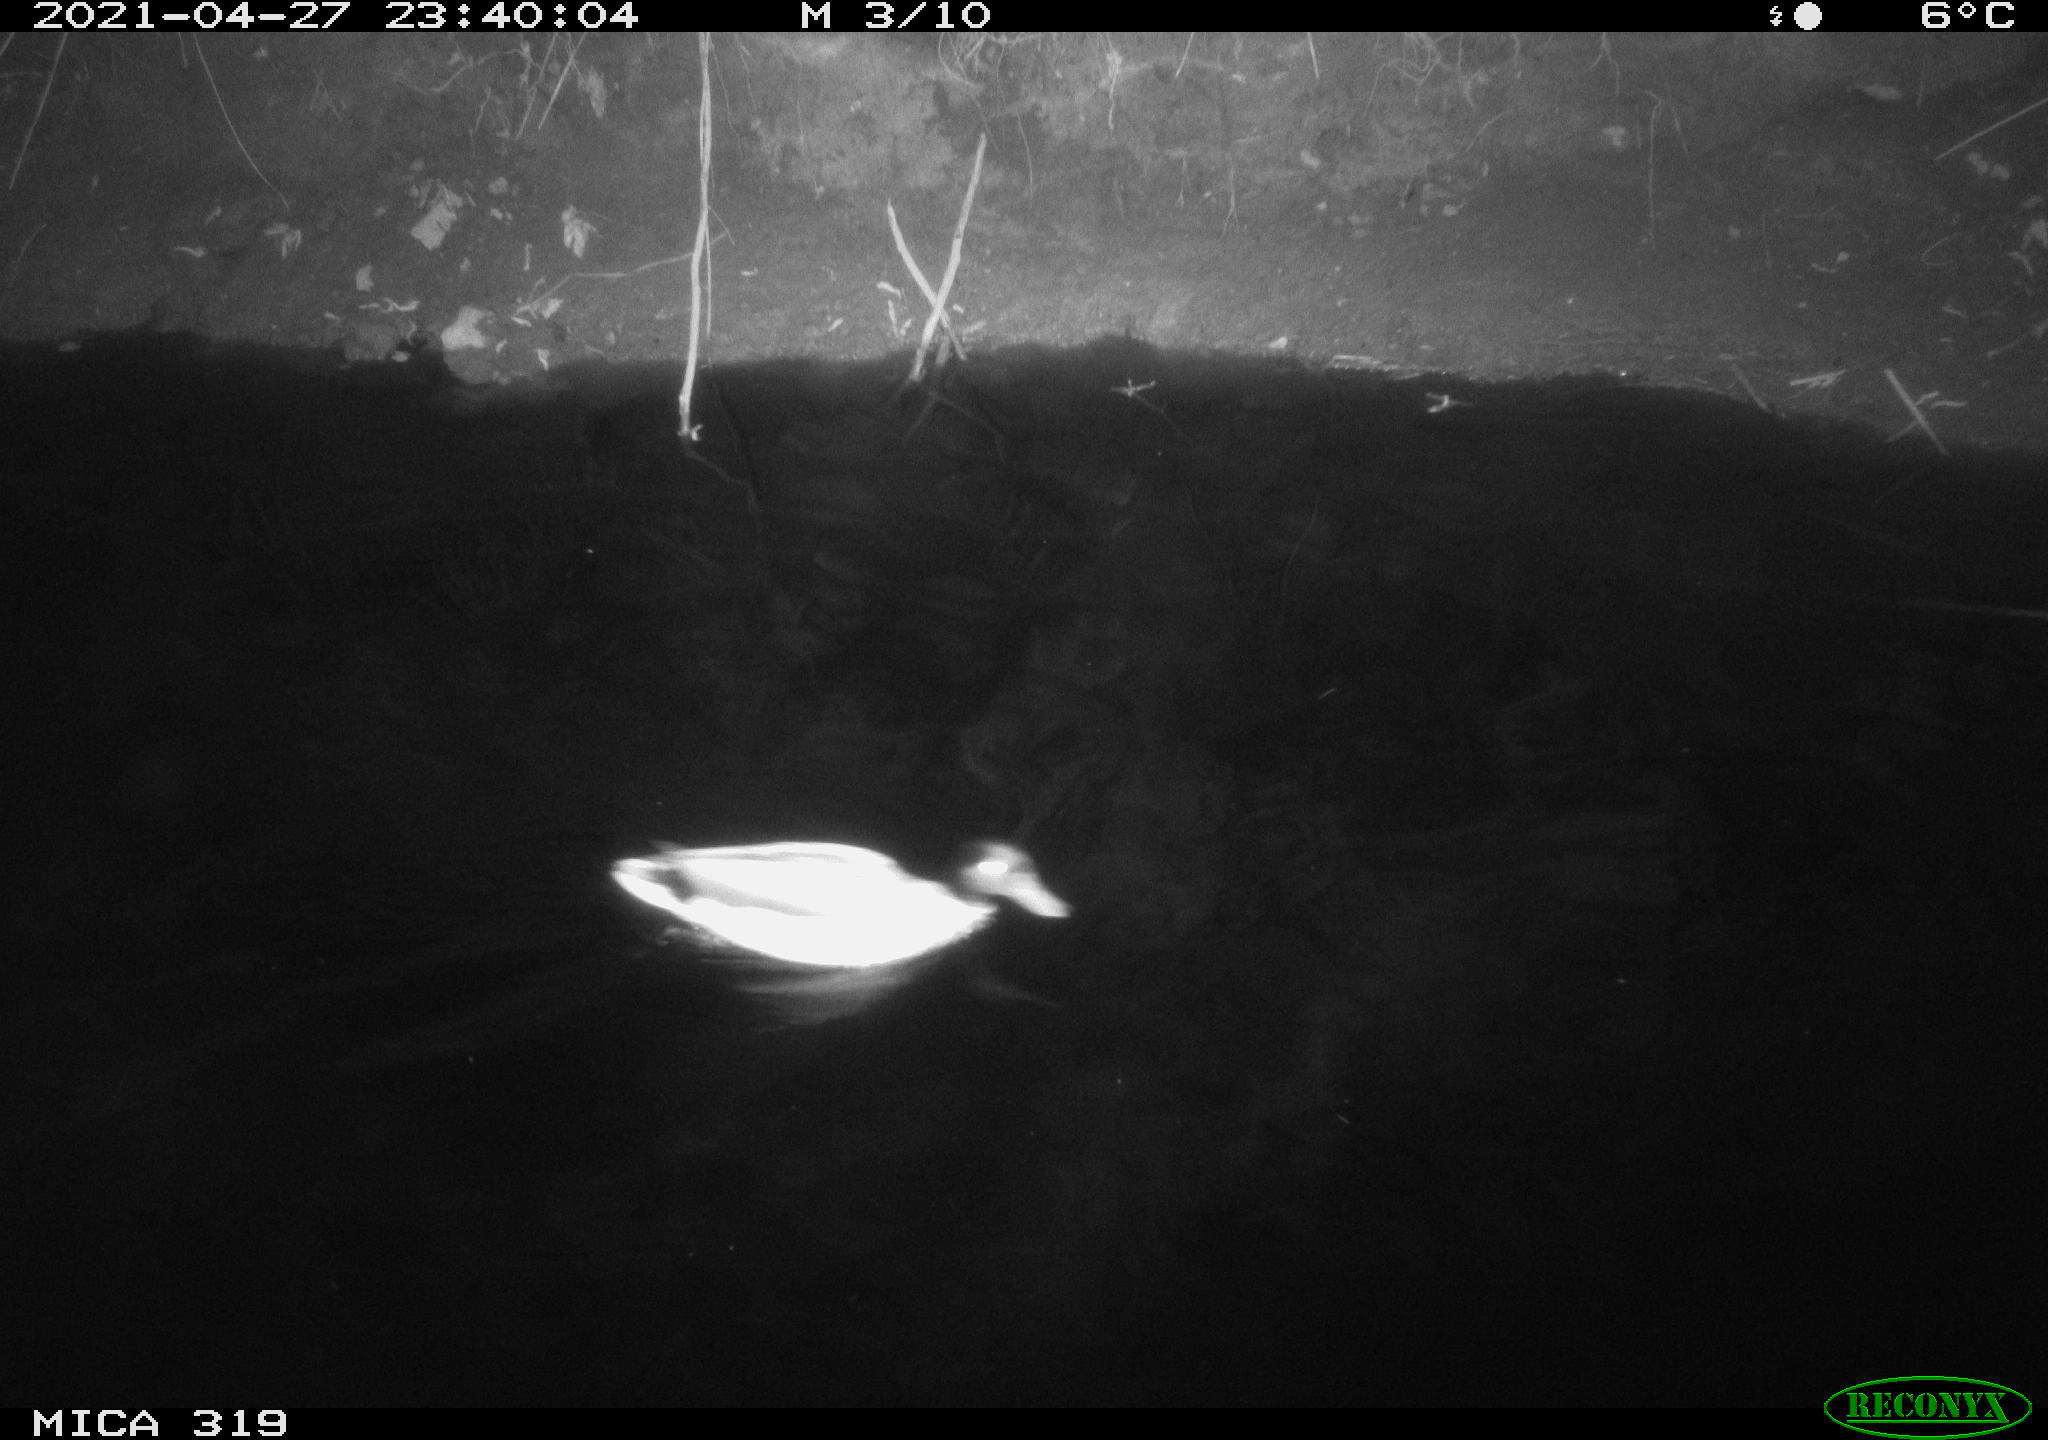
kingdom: Animalia
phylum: Chordata
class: Aves
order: Anseriformes
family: Anatidae
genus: Anas
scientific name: Anas platyrhynchos
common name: Mallard
